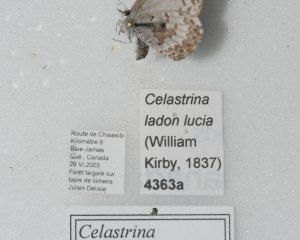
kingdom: Animalia
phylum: Arthropoda
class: Insecta
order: Lepidoptera
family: Lycaenidae
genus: Celastrina
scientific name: Celastrina lucia
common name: Northern Spring Azure
